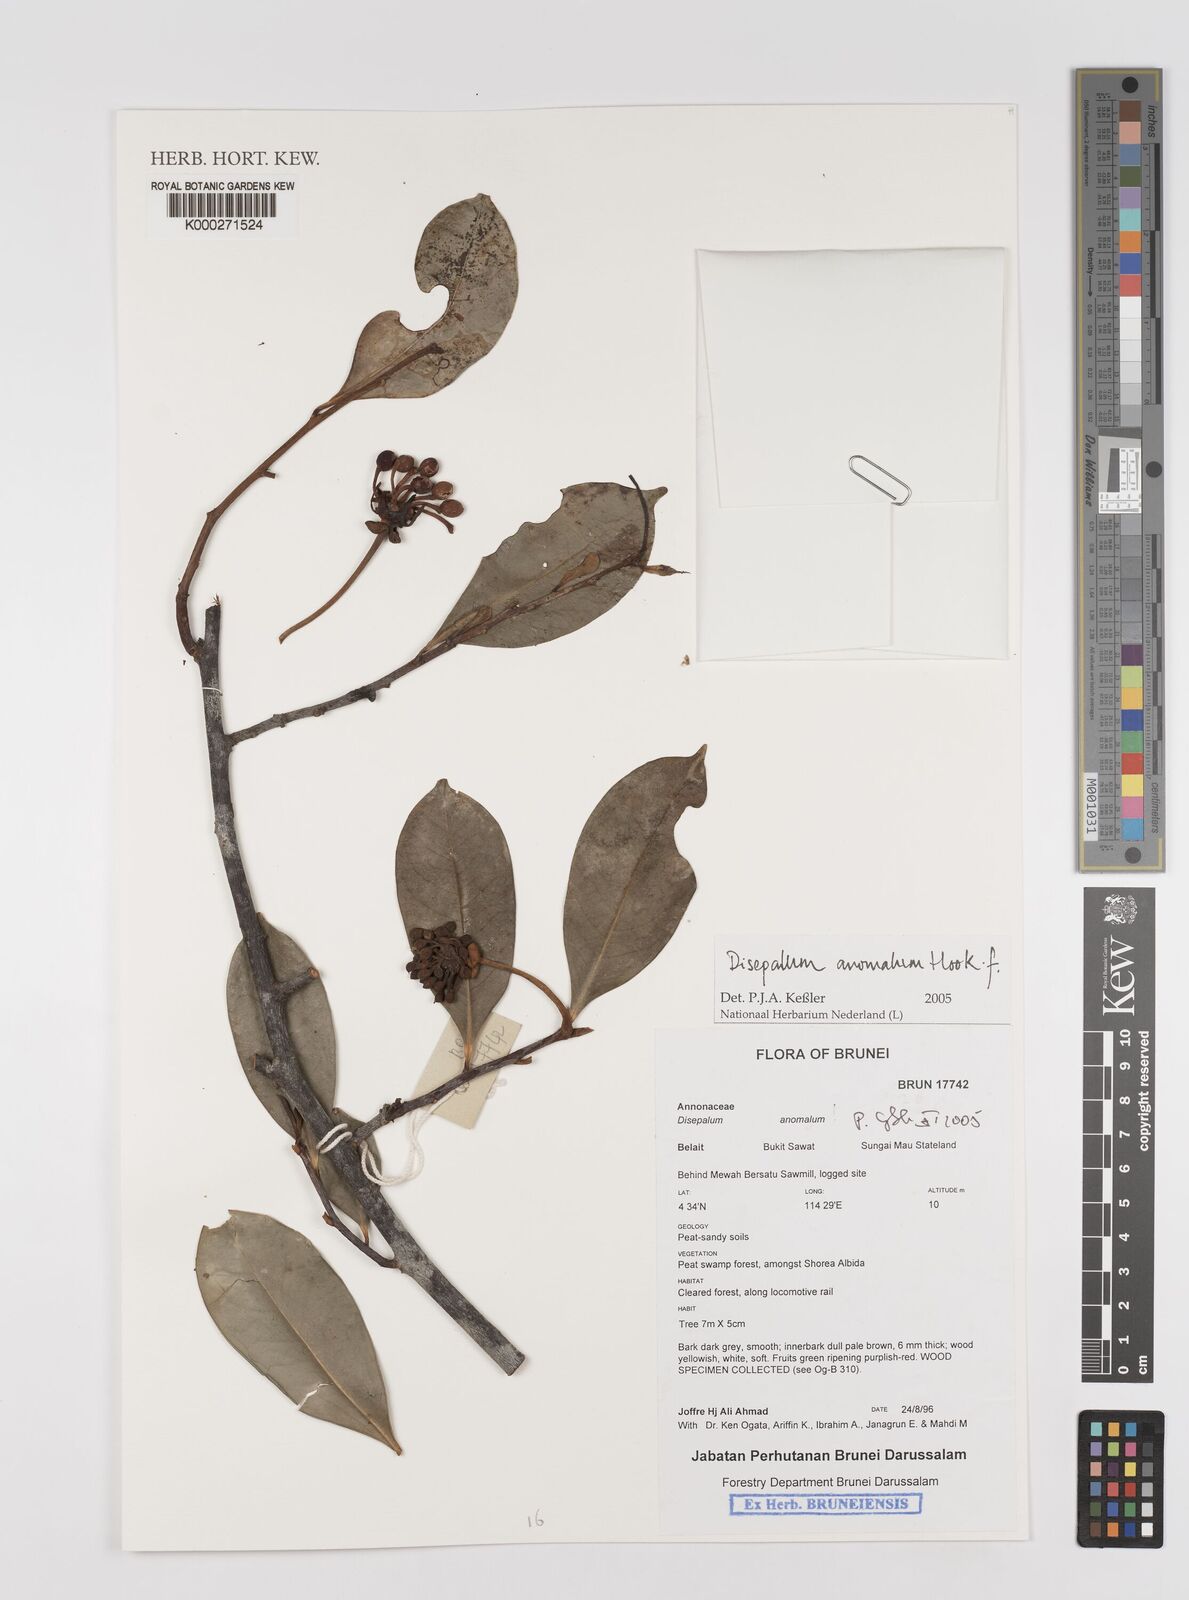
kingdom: Plantae
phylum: Tracheophyta
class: Magnoliopsida
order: Magnoliales
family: Annonaceae
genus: Disepalum
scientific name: Disepalum anomalum
